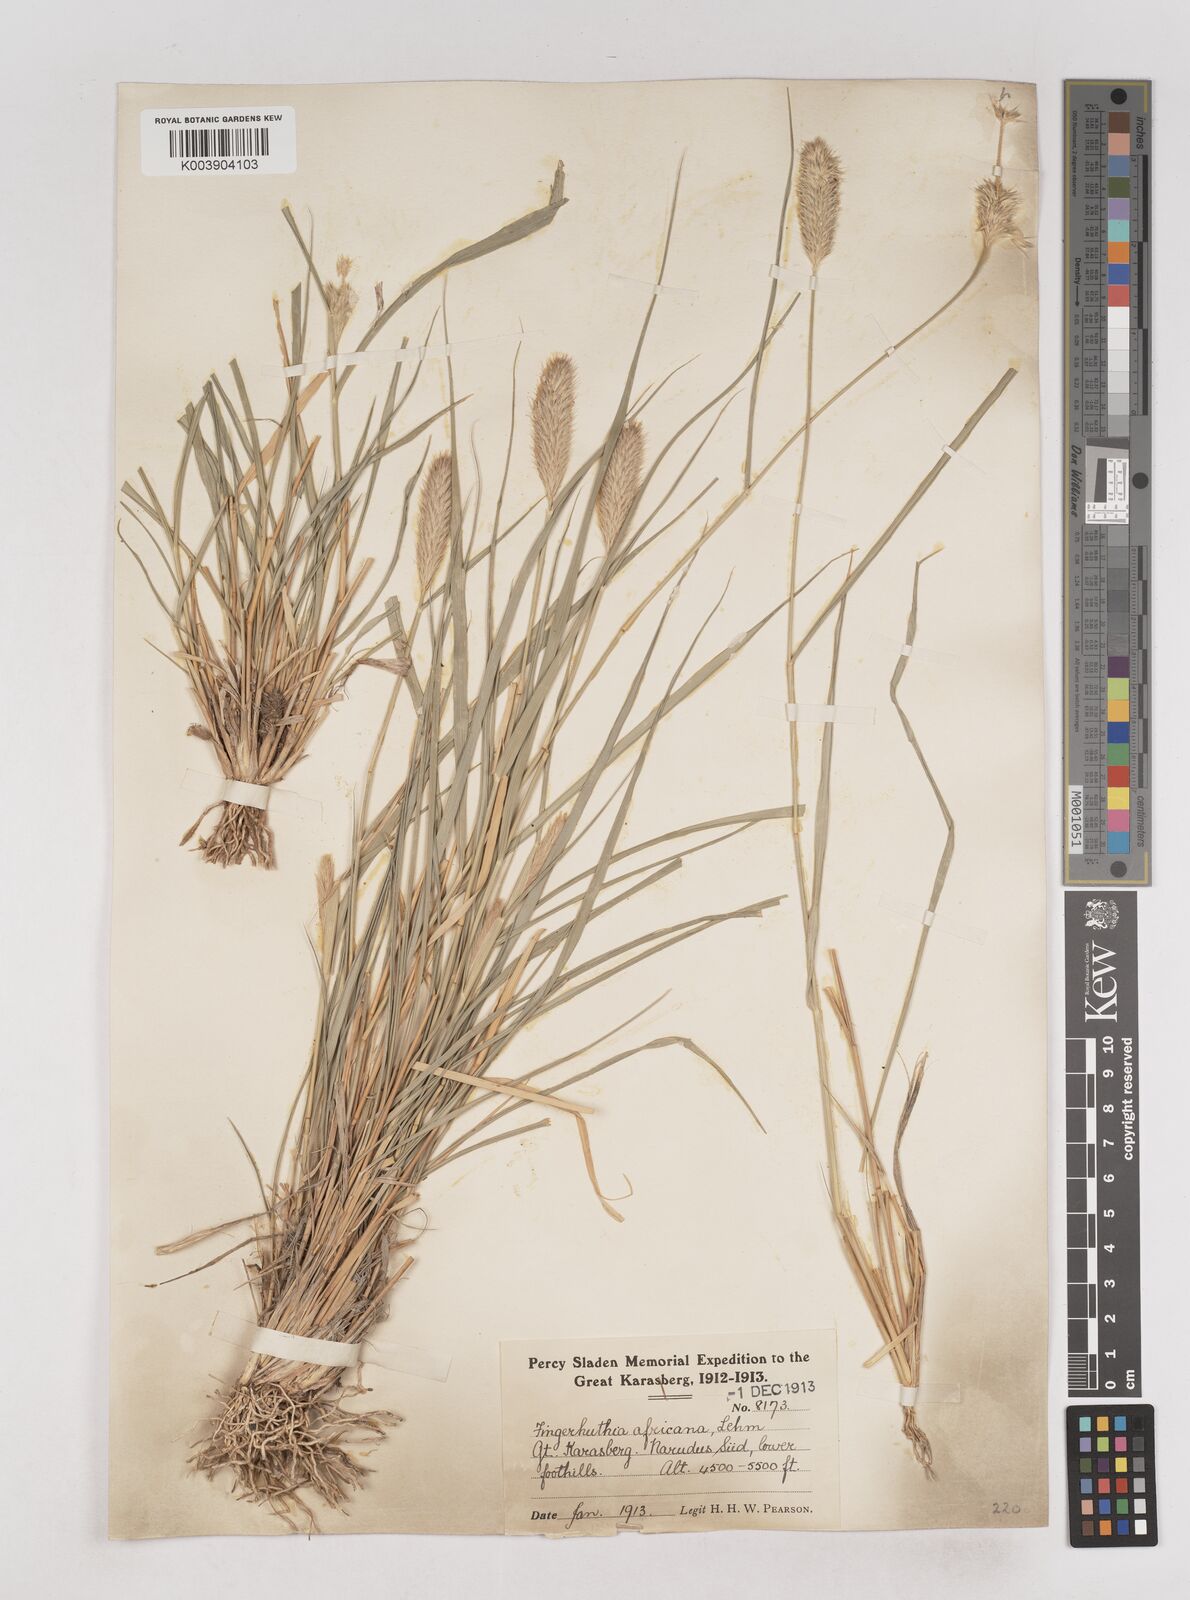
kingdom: Plantae
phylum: Tracheophyta
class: Liliopsida
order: Poales
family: Poaceae
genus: Fingerhuthia
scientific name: Fingerhuthia africana
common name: Zulu fescue
